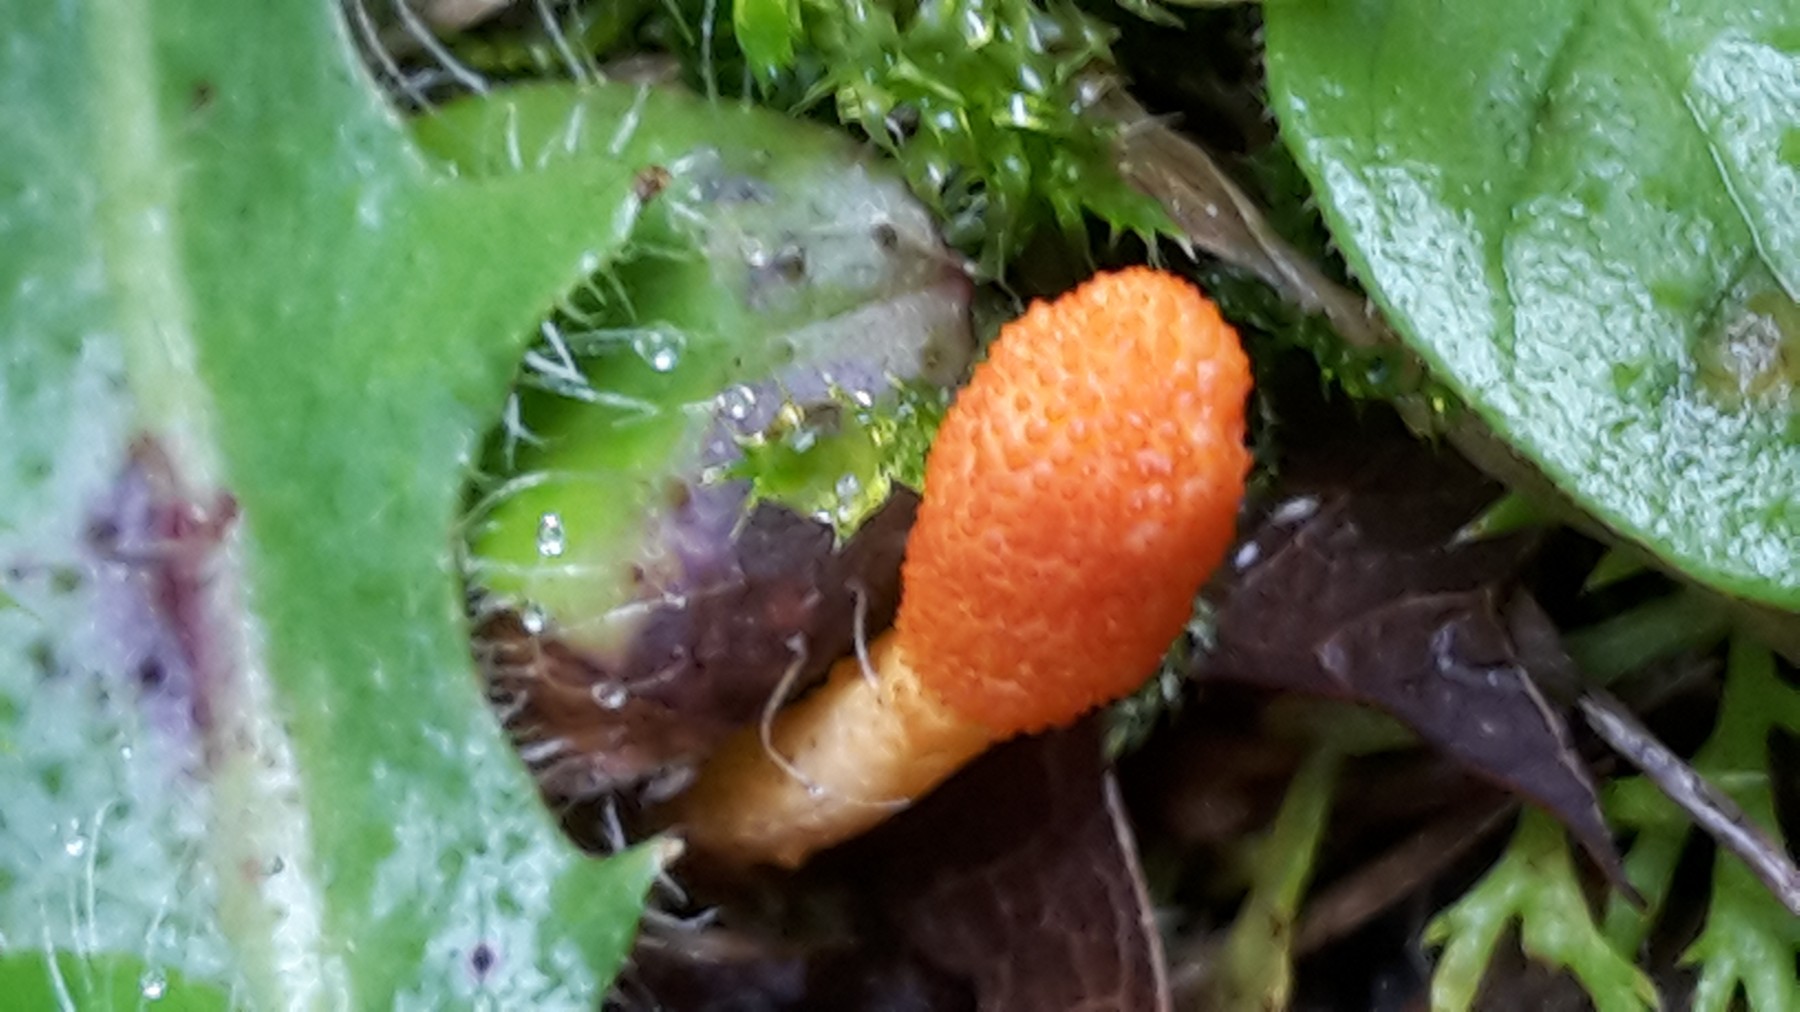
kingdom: Fungi
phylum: Ascomycota
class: Sordariomycetes
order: Hypocreales
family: Cordycipitaceae
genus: Cordyceps
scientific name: Cordyceps militaris
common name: puppe-snyltekølle
